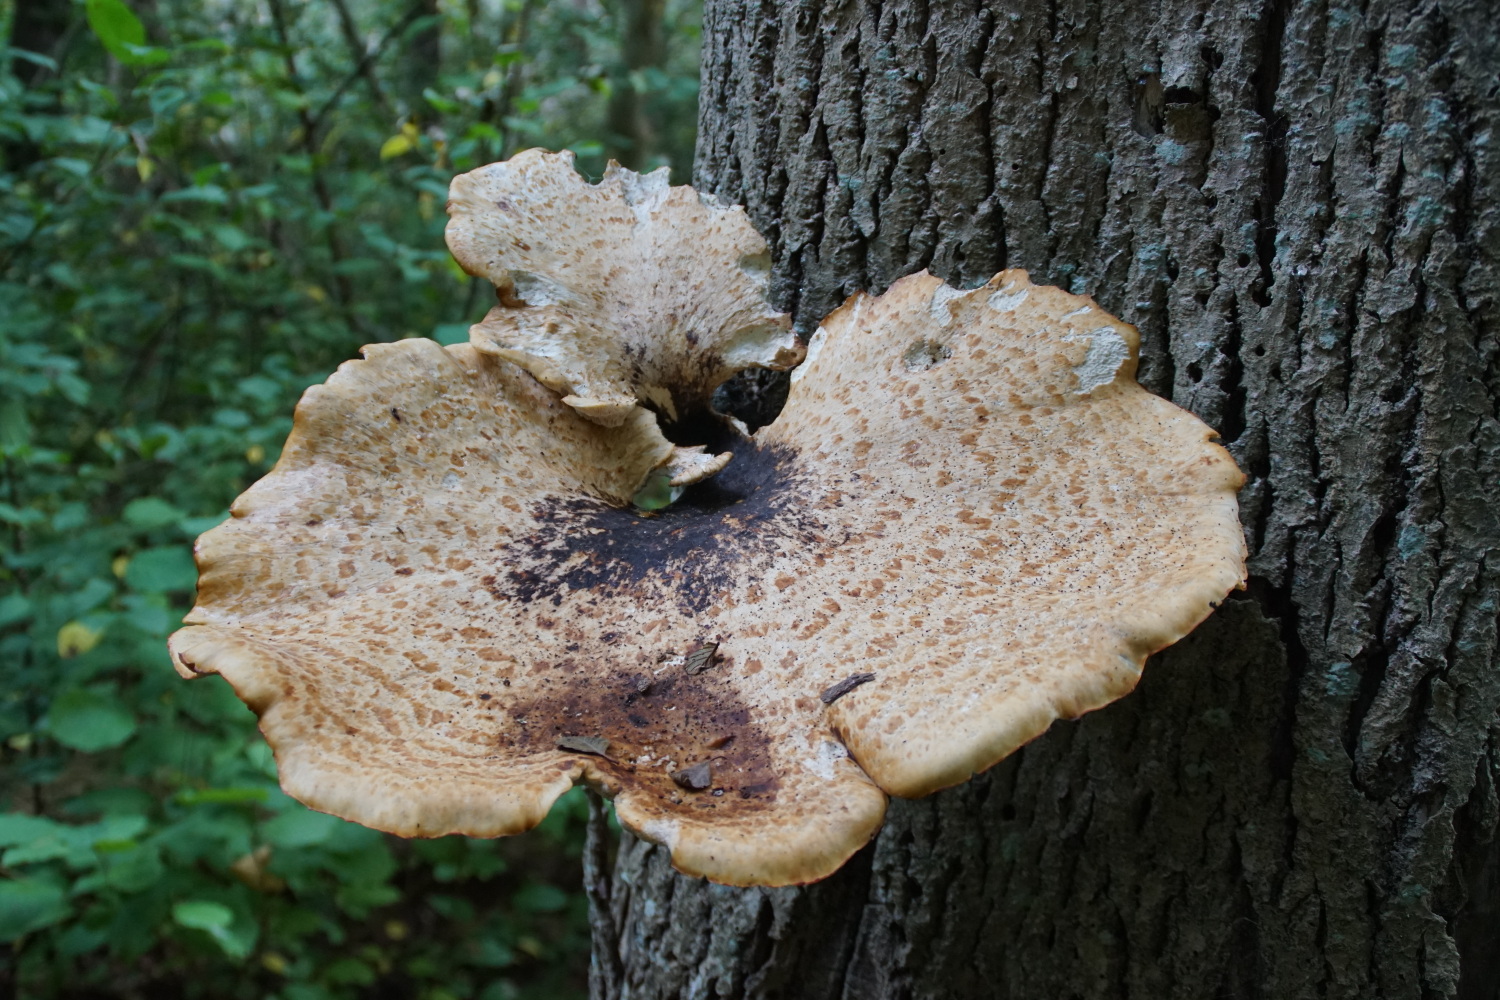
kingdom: Fungi
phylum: Basidiomycota
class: Agaricomycetes
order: Polyporales
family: Polyporaceae
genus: Cerioporus
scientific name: Cerioporus squamosus
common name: skællet stilkporesvamp
